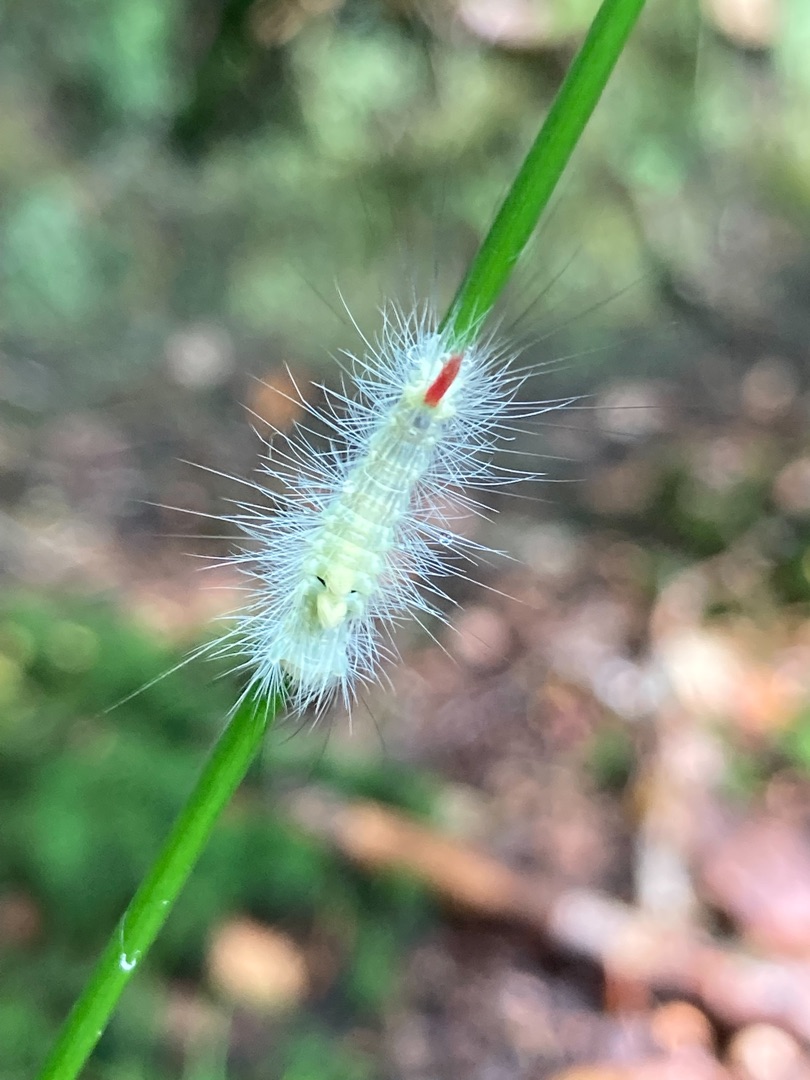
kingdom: Animalia
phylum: Arthropoda
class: Insecta
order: Lepidoptera
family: Erebidae
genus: Calliteara
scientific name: Calliteara pudibunda
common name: Bøgenonne
